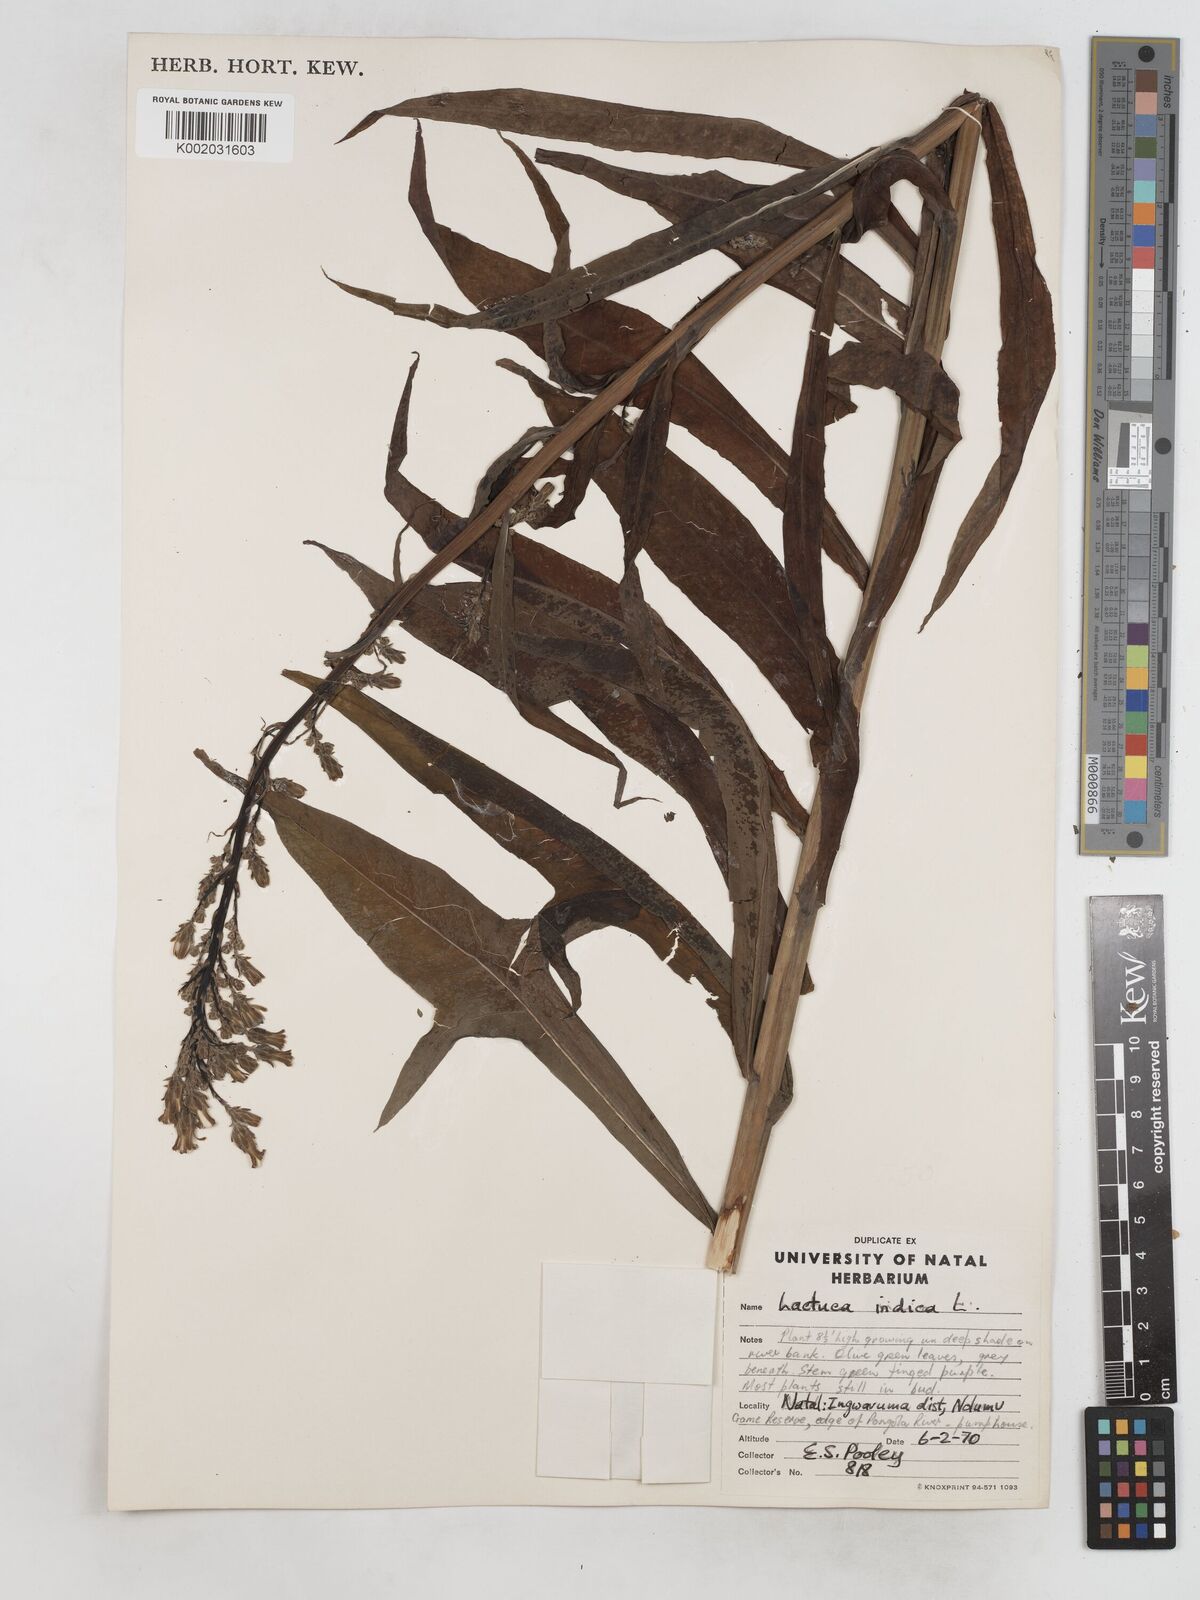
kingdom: Plantae
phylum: Tracheophyta
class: Magnoliopsida
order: Asterales
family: Asteraceae
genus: Lactuca
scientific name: Lactuca indica
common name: Wild lettuce
